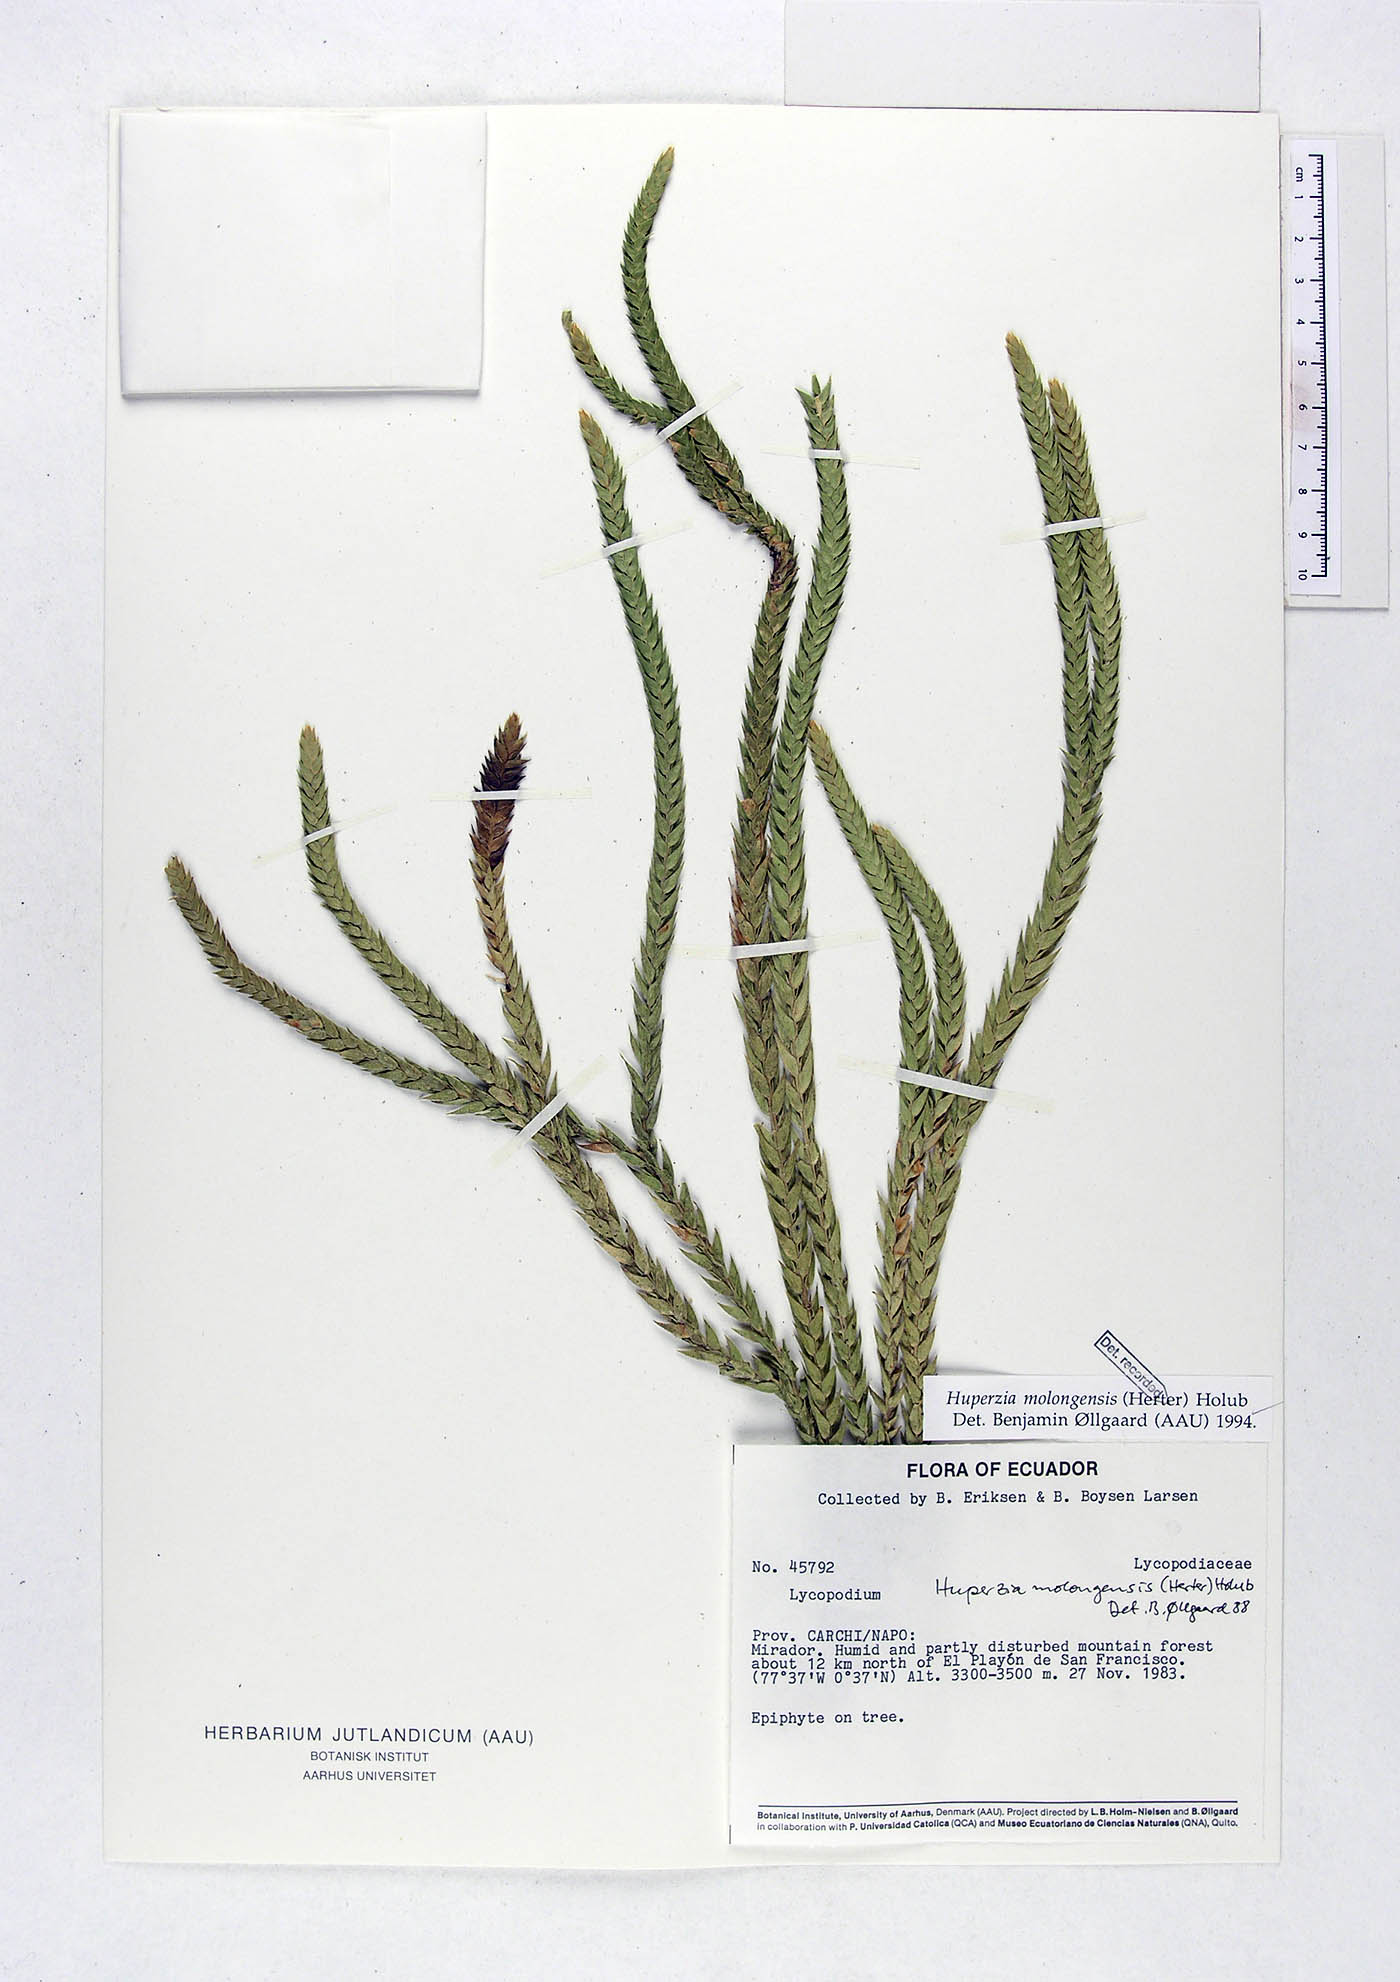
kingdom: Plantae
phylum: Tracheophyta
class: Lycopodiopsida
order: Lycopodiales
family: Lycopodiaceae
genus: Phlegmariurus
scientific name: Phlegmariurus echinatus
